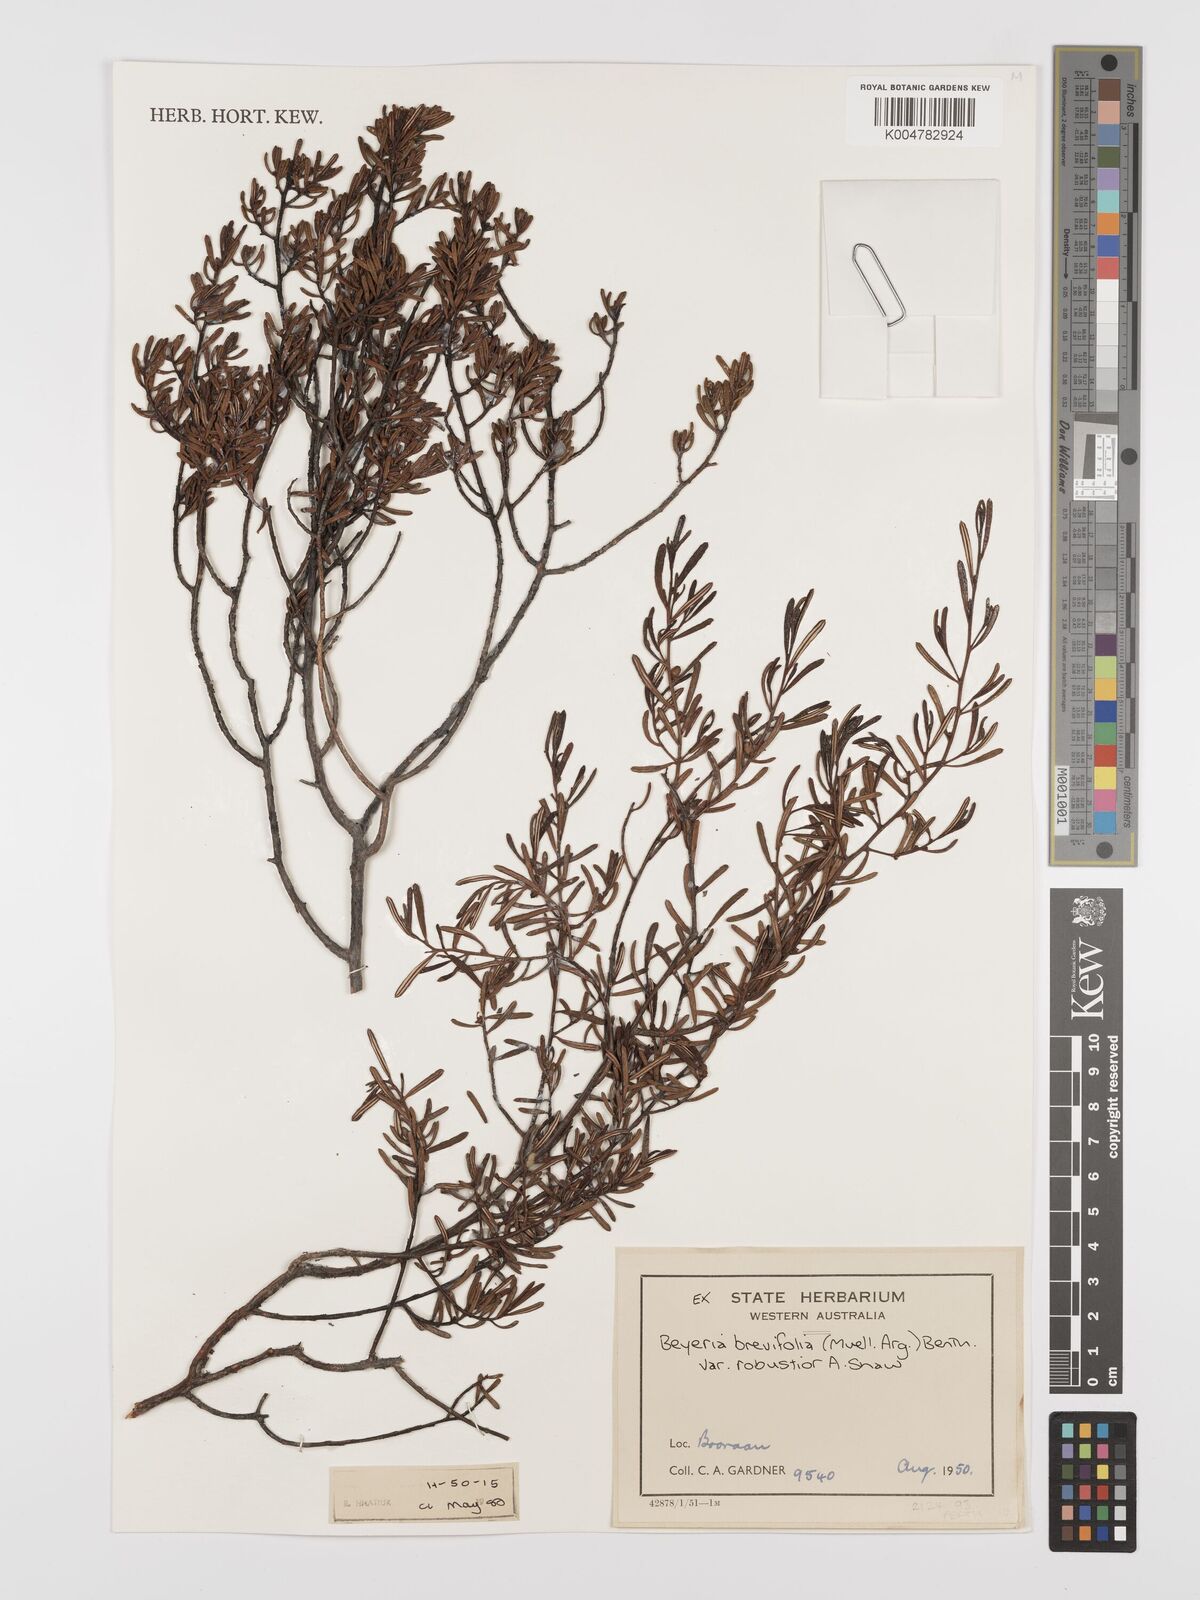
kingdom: Plantae
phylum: Tracheophyta
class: Magnoliopsida
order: Malpighiales
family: Euphorbiaceae
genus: Beyeria
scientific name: Beyeria sulcata
